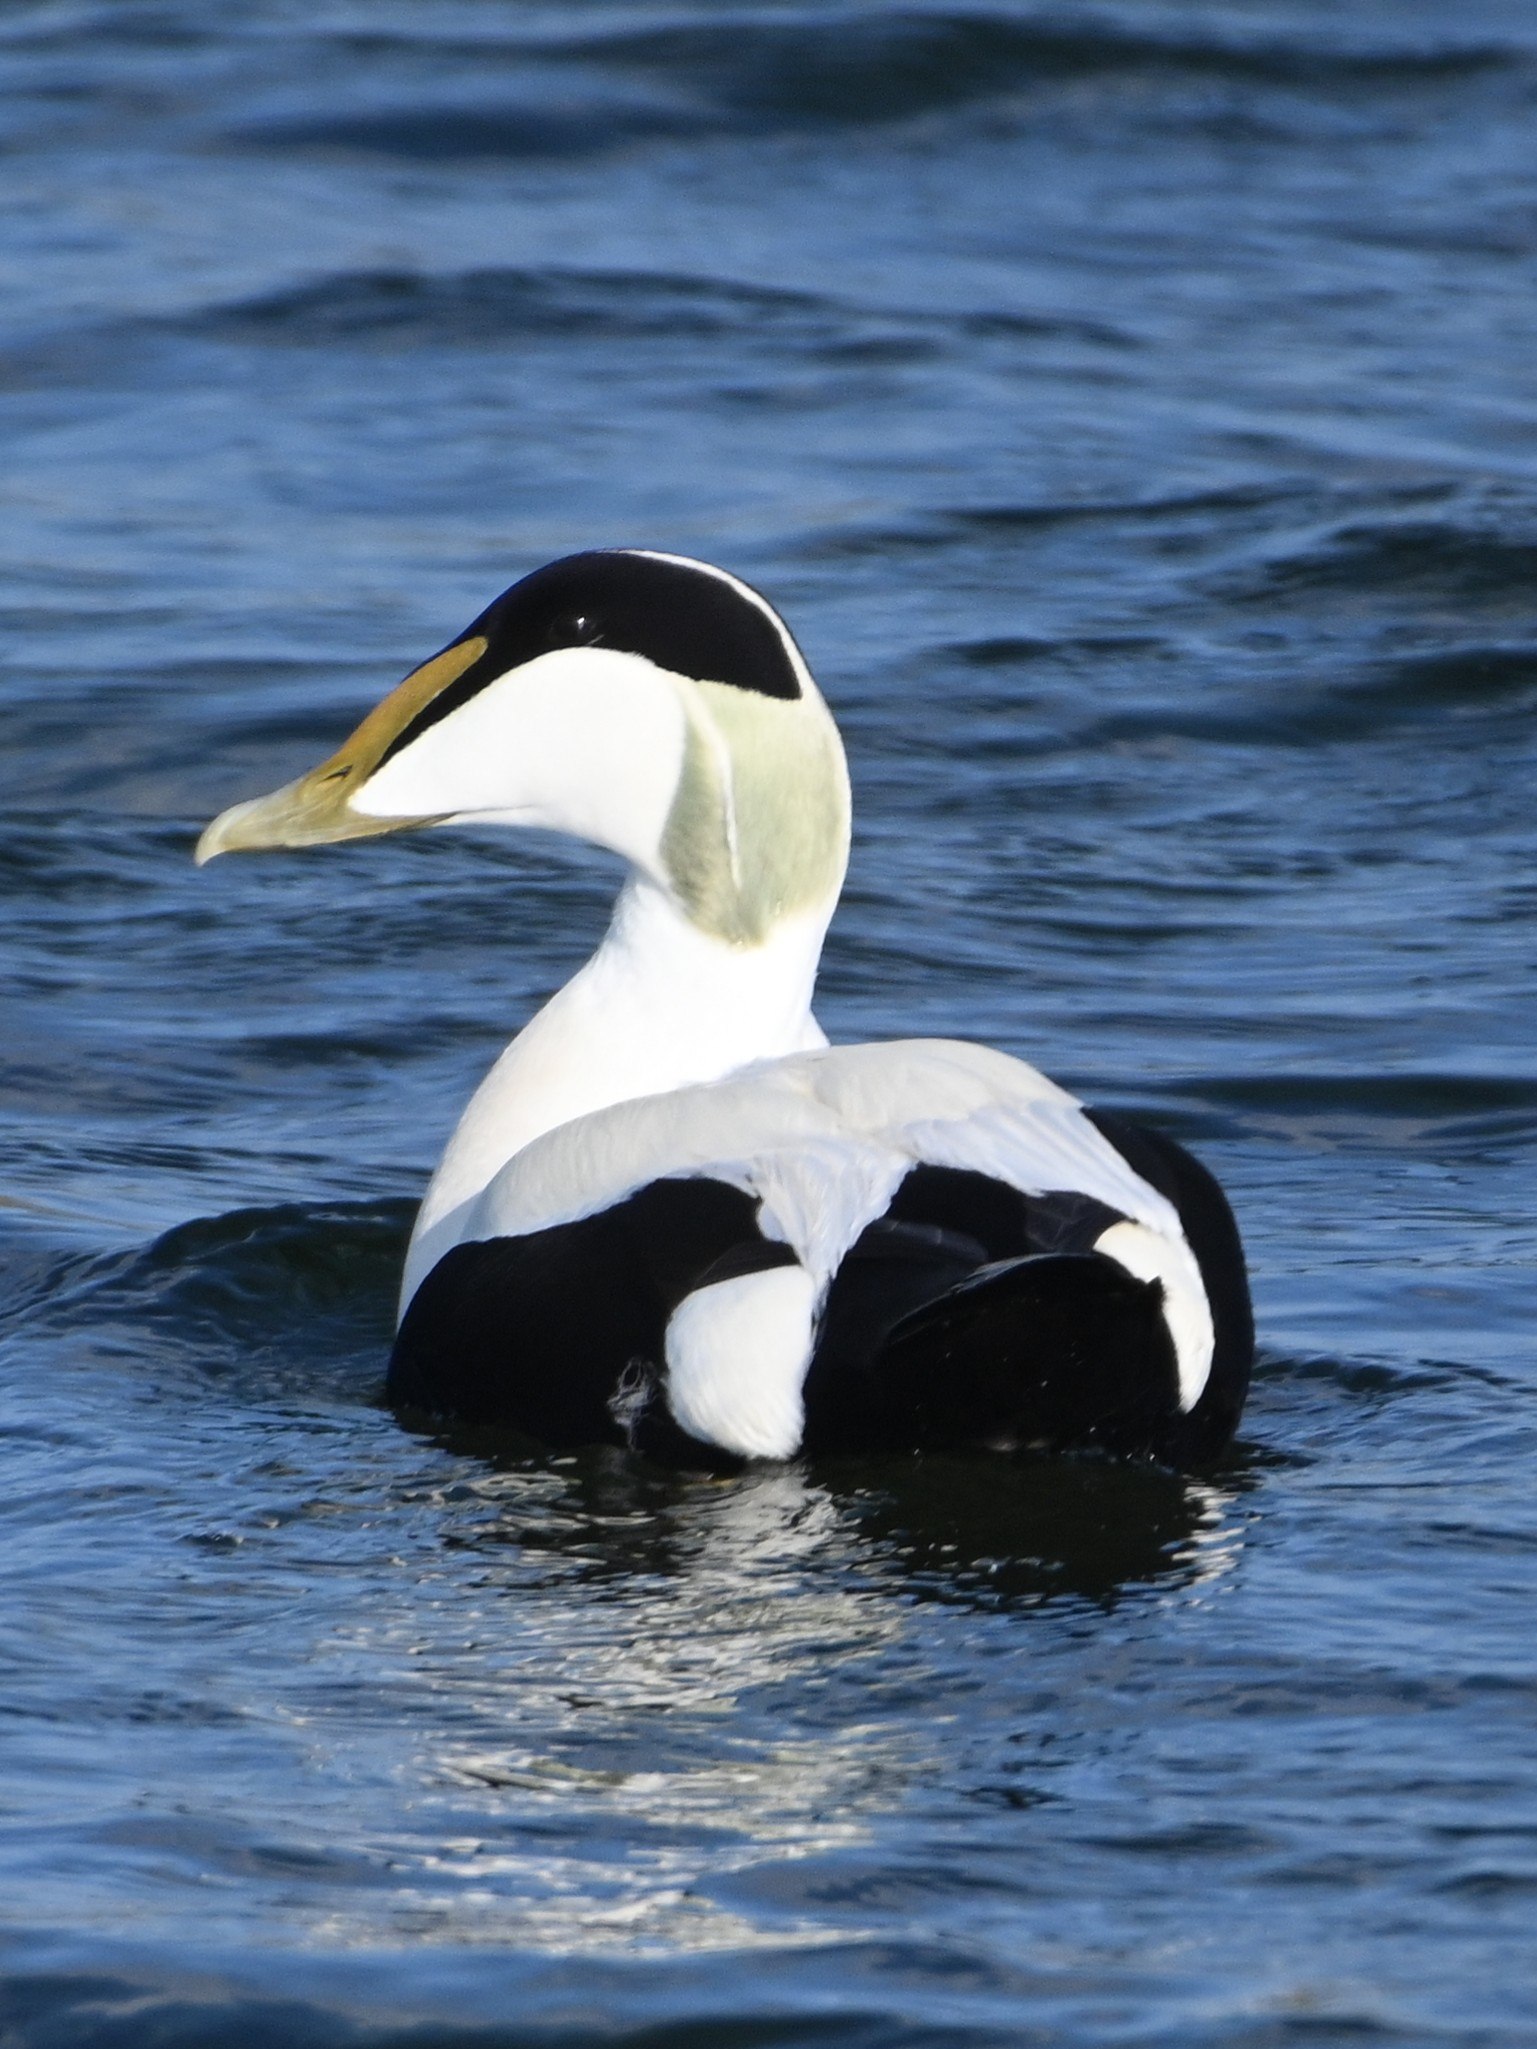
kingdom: Animalia
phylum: Chordata
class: Aves
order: Anseriformes
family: Anatidae
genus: Somateria
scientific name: Somateria mollissima
